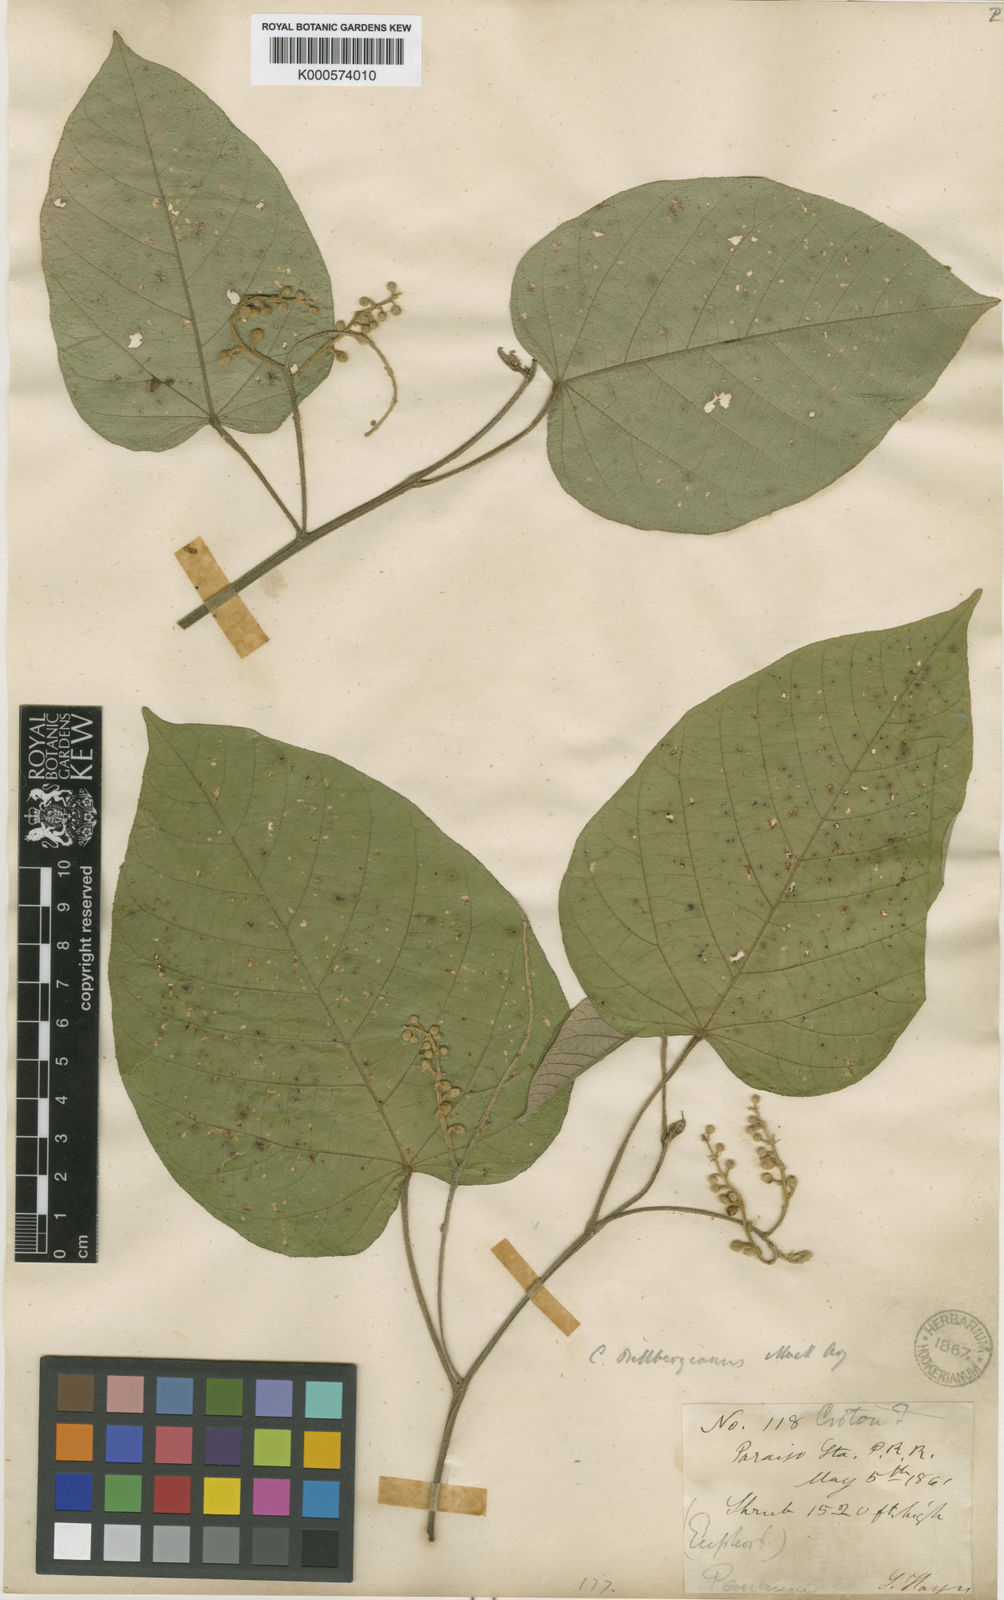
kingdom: Plantae
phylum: Tracheophyta
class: Magnoliopsida
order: Malpighiales
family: Euphorbiaceae
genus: Croton
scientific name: Croton
